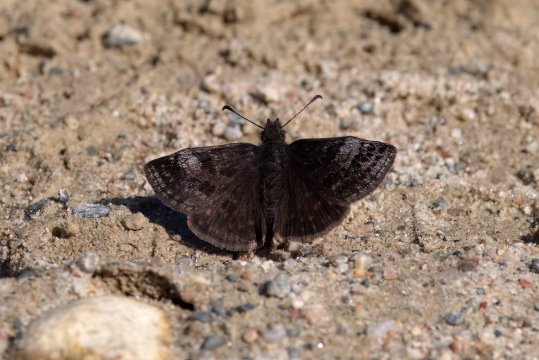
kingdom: Animalia
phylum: Arthropoda
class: Insecta
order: Lepidoptera
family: Hesperiidae
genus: Erynnis
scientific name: Erynnis icelus
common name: Dreamy Duskywing
